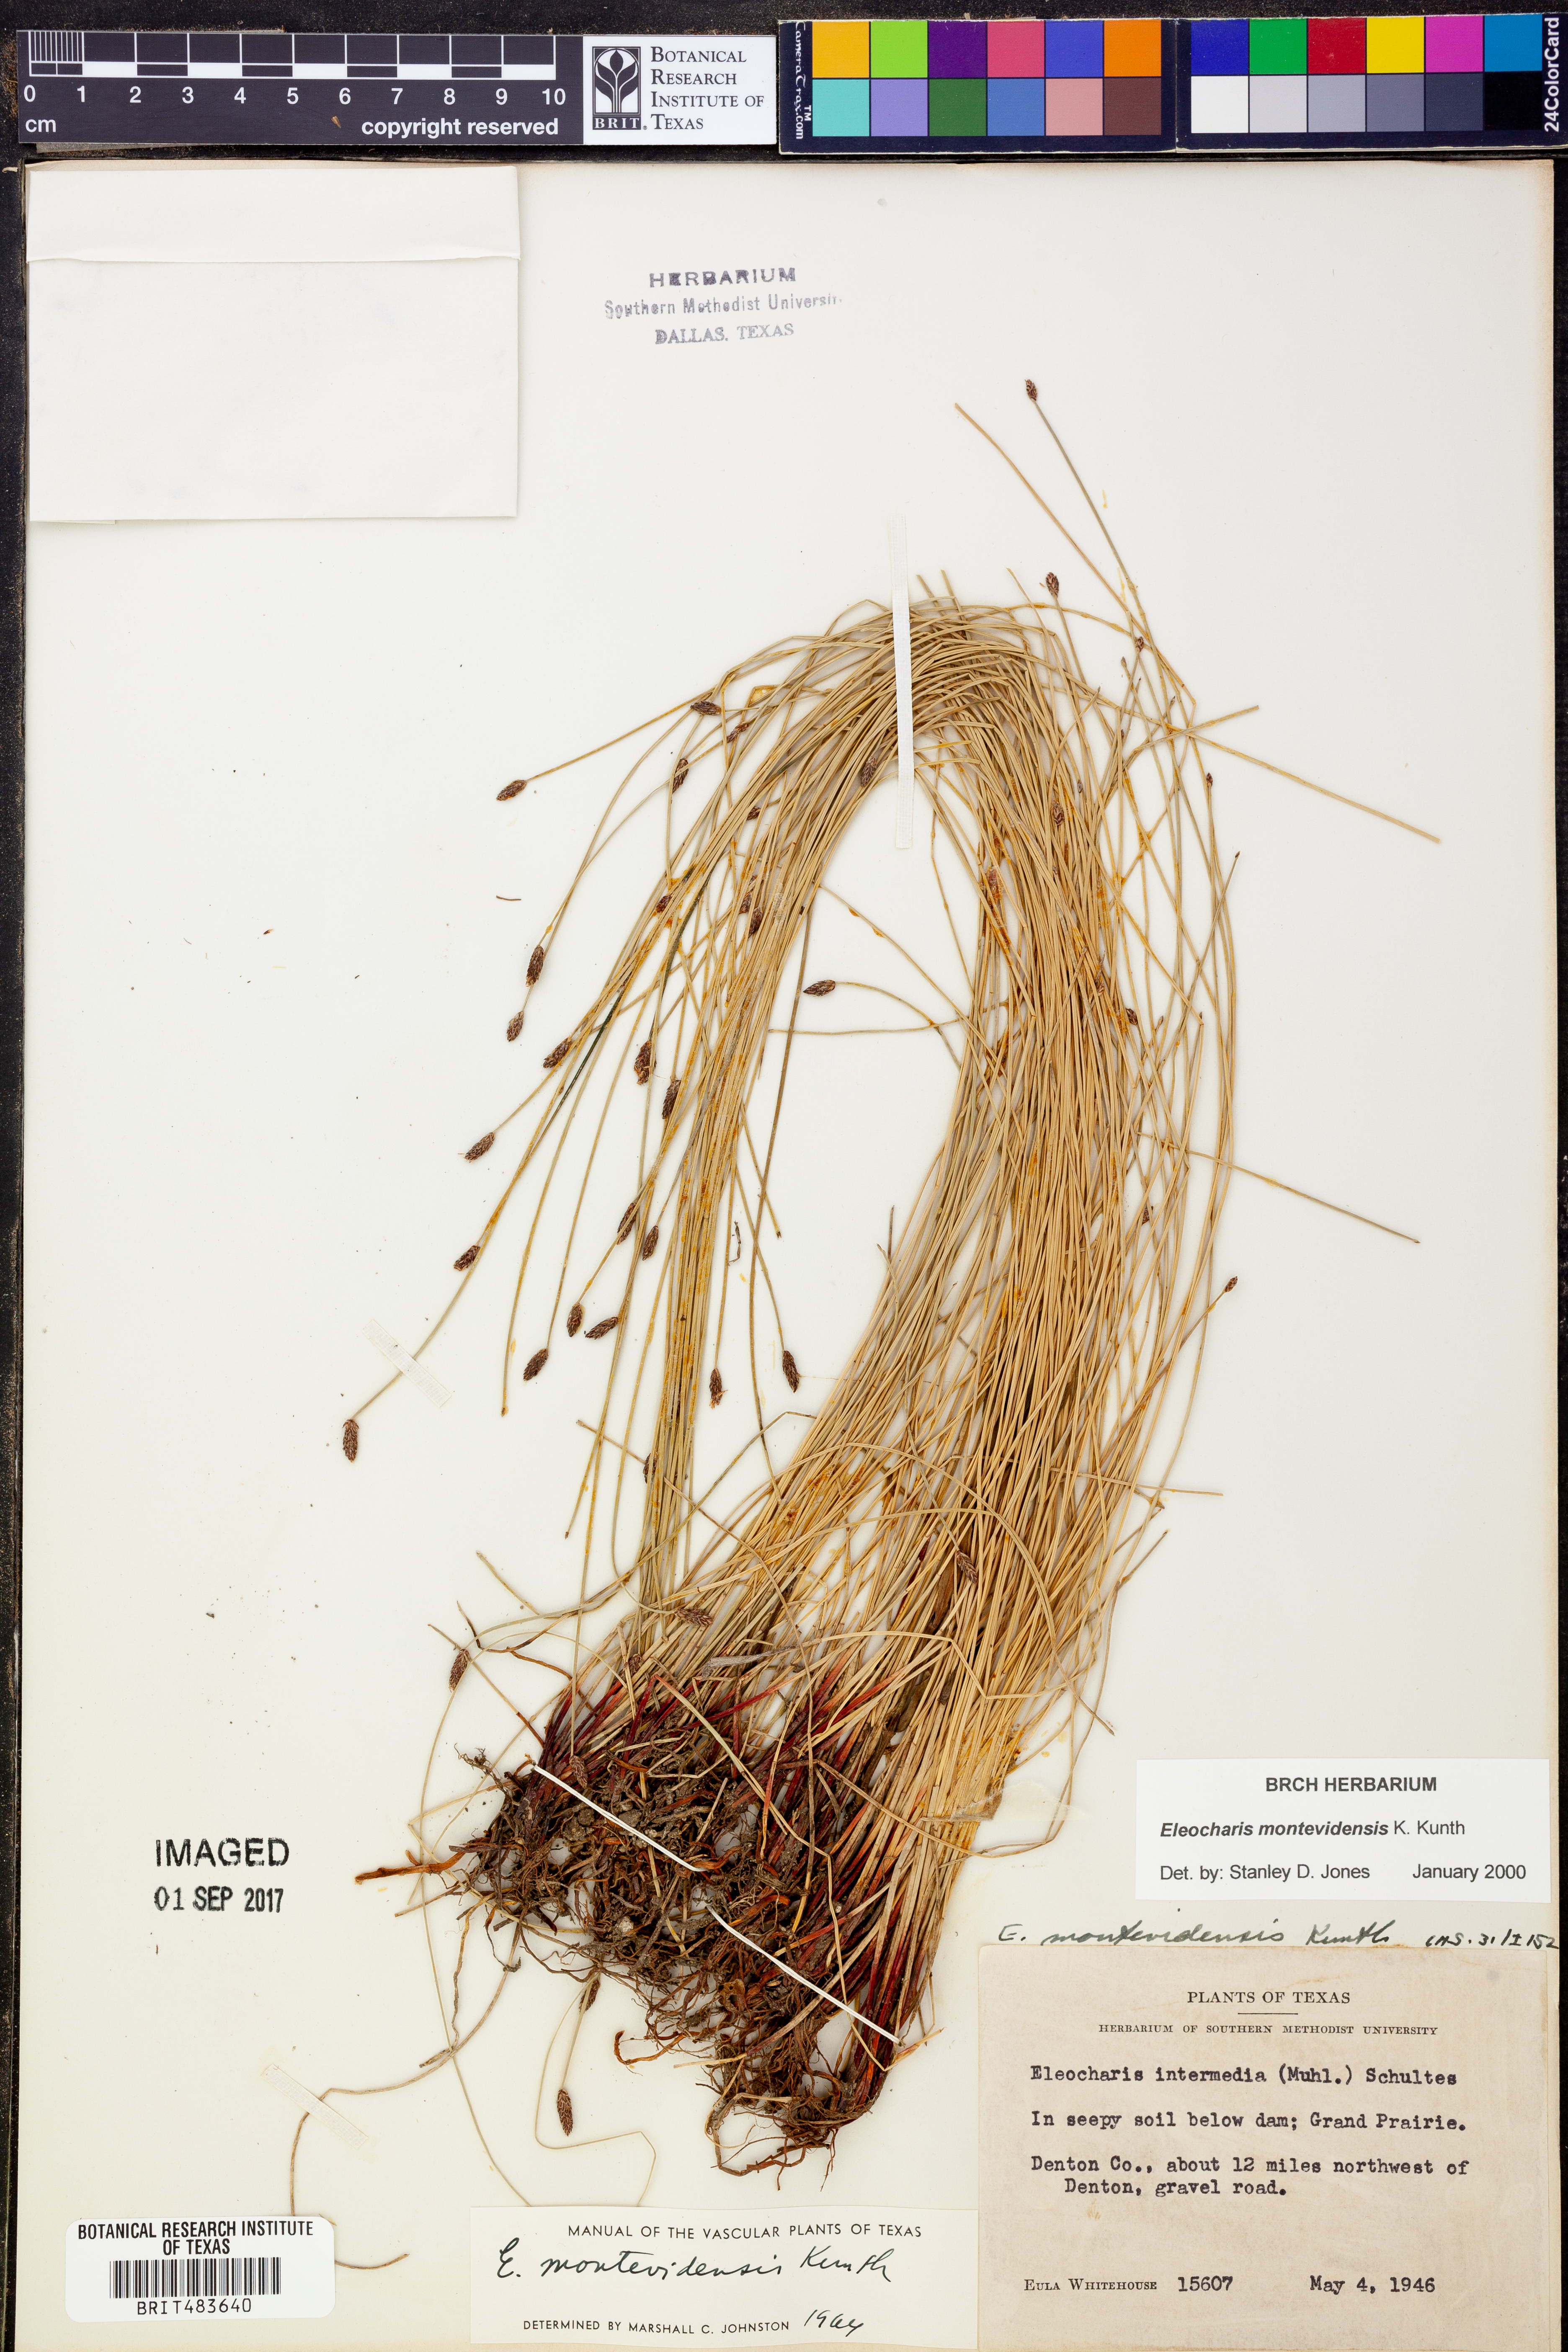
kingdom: Plantae
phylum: Tracheophyta
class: Liliopsida
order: Poales
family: Cyperaceae
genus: Eleocharis
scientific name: Eleocharis montevidensis
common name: Sand spike-rush
